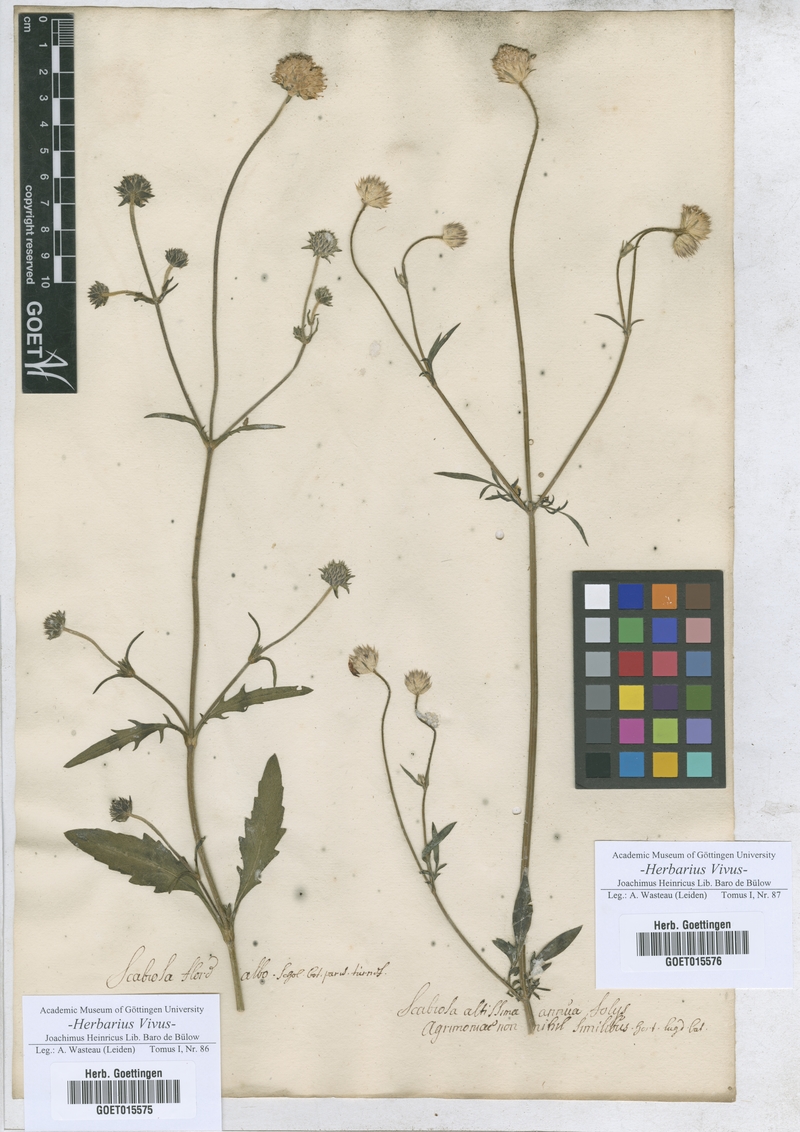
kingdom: Plantae
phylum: Tracheophyta
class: Magnoliopsida
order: Dipsacales
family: Caprifoliaceae
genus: Scabiosa
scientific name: Scabiosa
